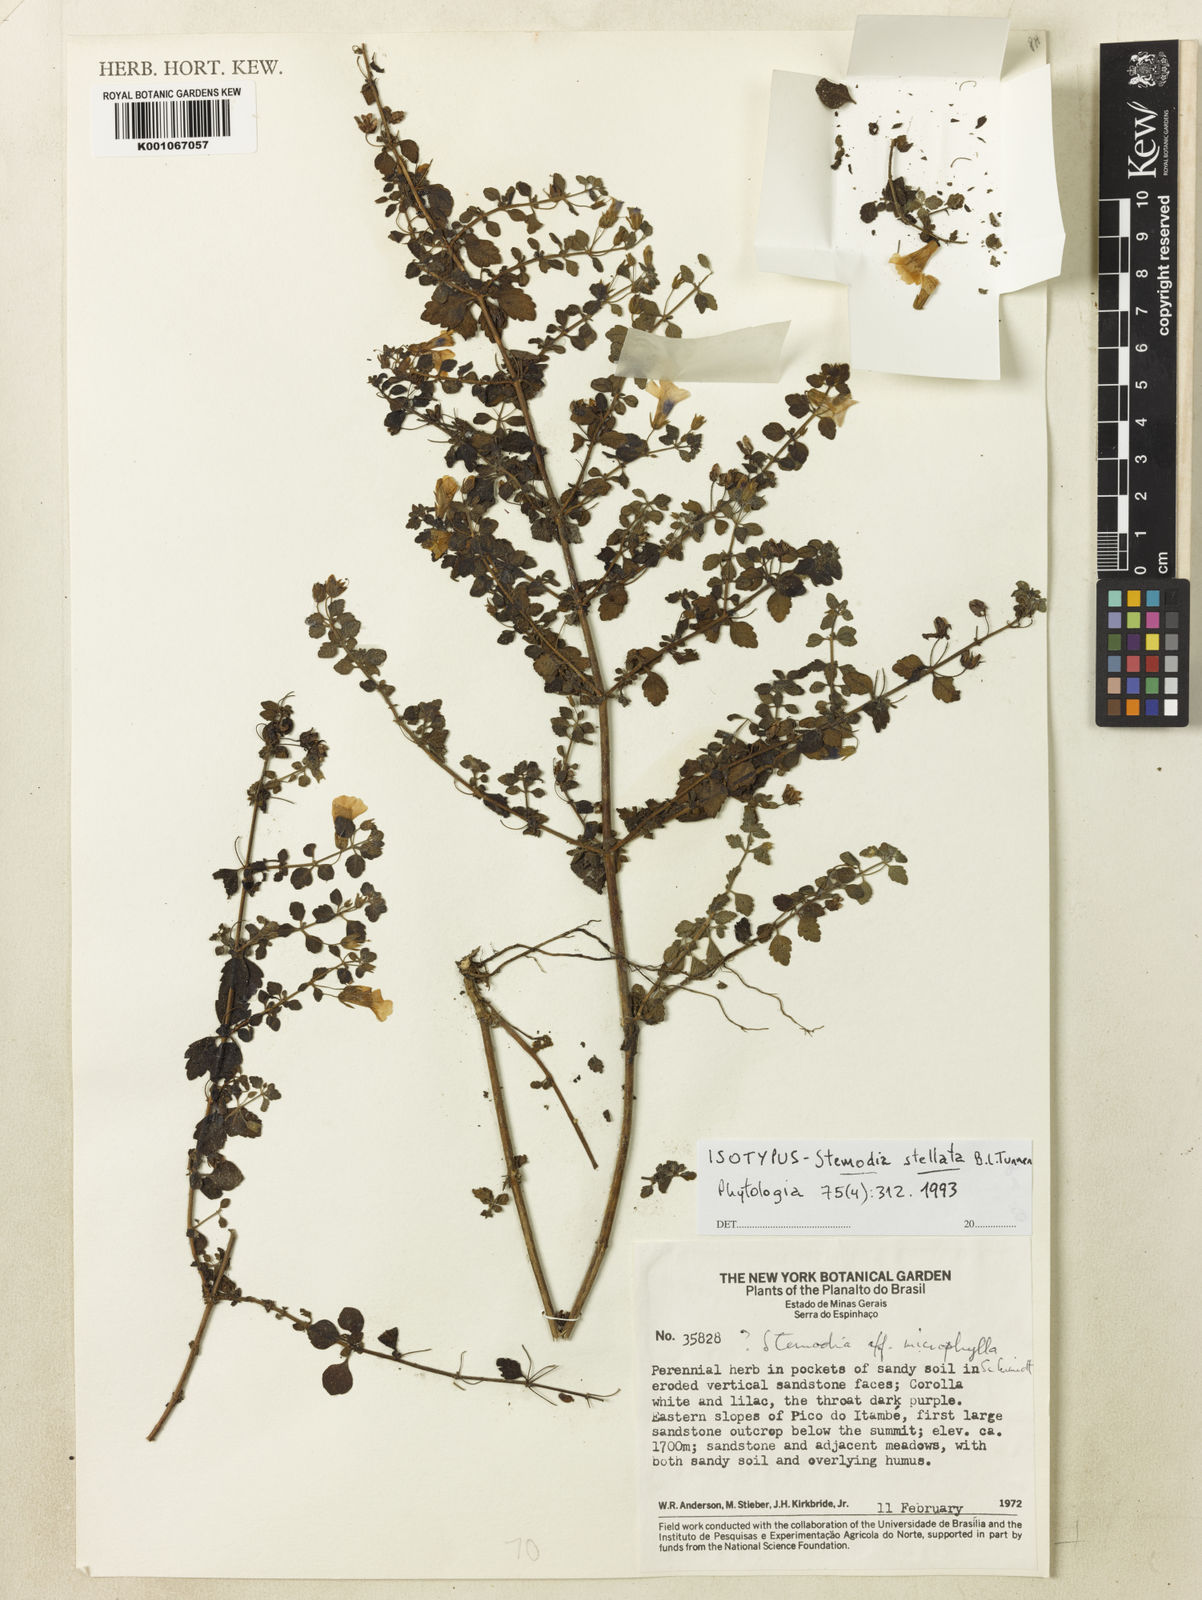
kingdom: Plantae
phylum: Tracheophyta
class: Magnoliopsida
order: Lamiales
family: Plantaginaceae
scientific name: Plantaginaceae
